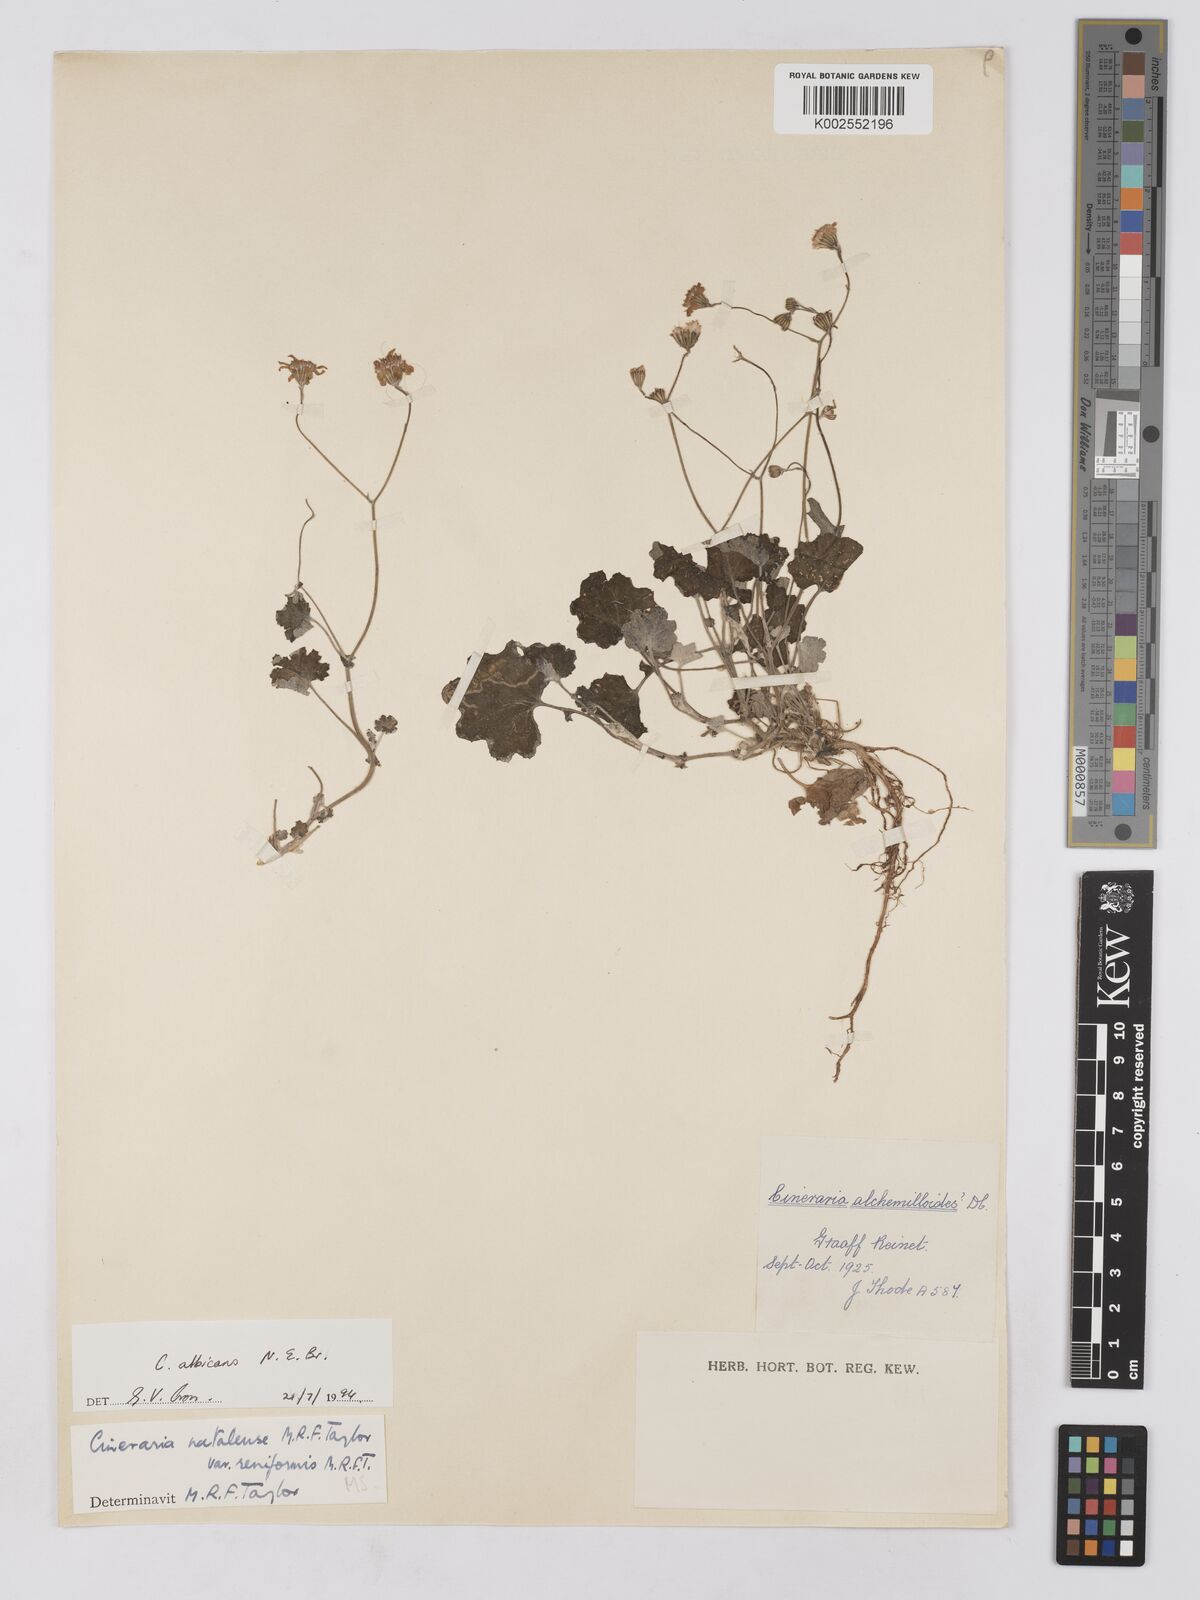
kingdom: Plantae
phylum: Tracheophyta
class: Magnoliopsida
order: Asterales
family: Asteraceae
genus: Cineraria
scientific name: Cineraria albicans
